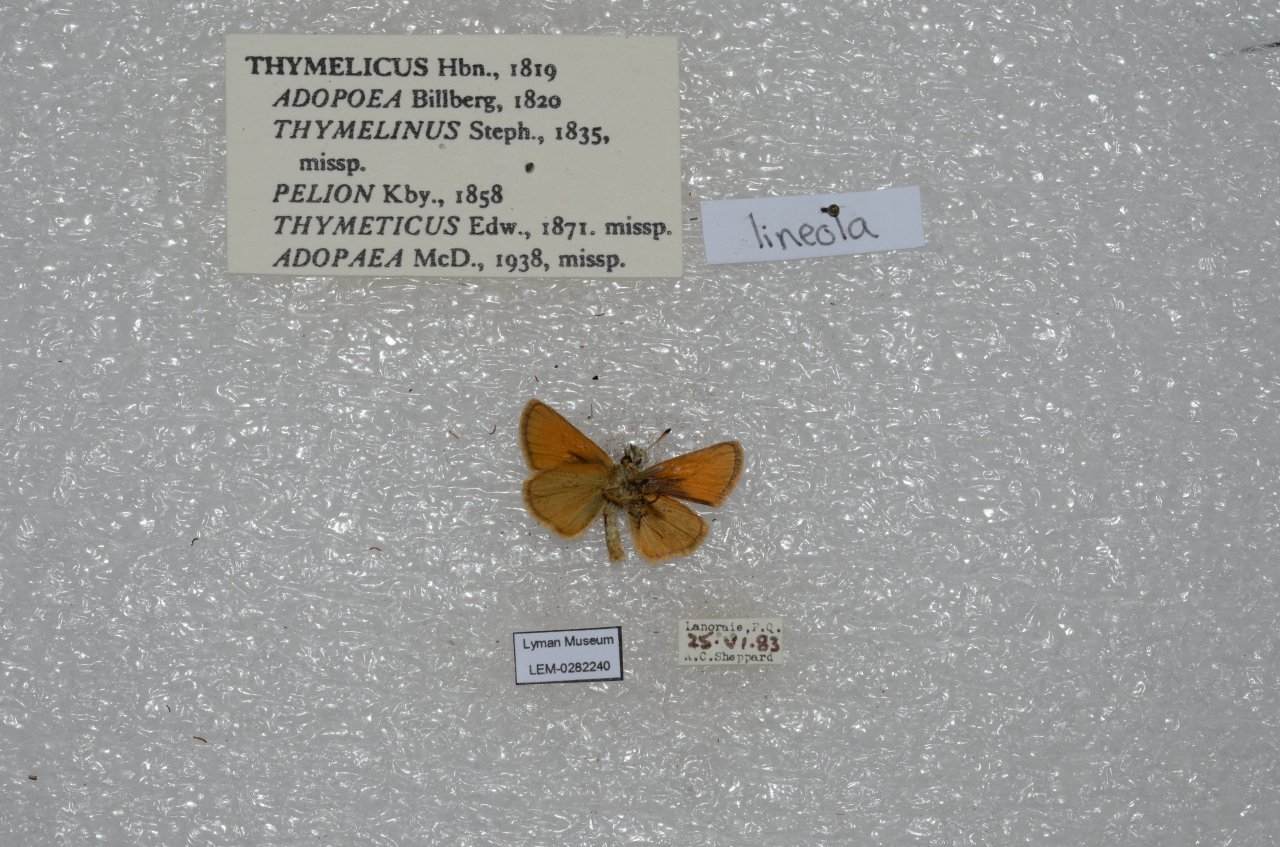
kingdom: Animalia
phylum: Arthropoda
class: Insecta
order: Lepidoptera
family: Hesperiidae
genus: Thymelicus
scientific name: Thymelicus lineola
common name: European Skipper
